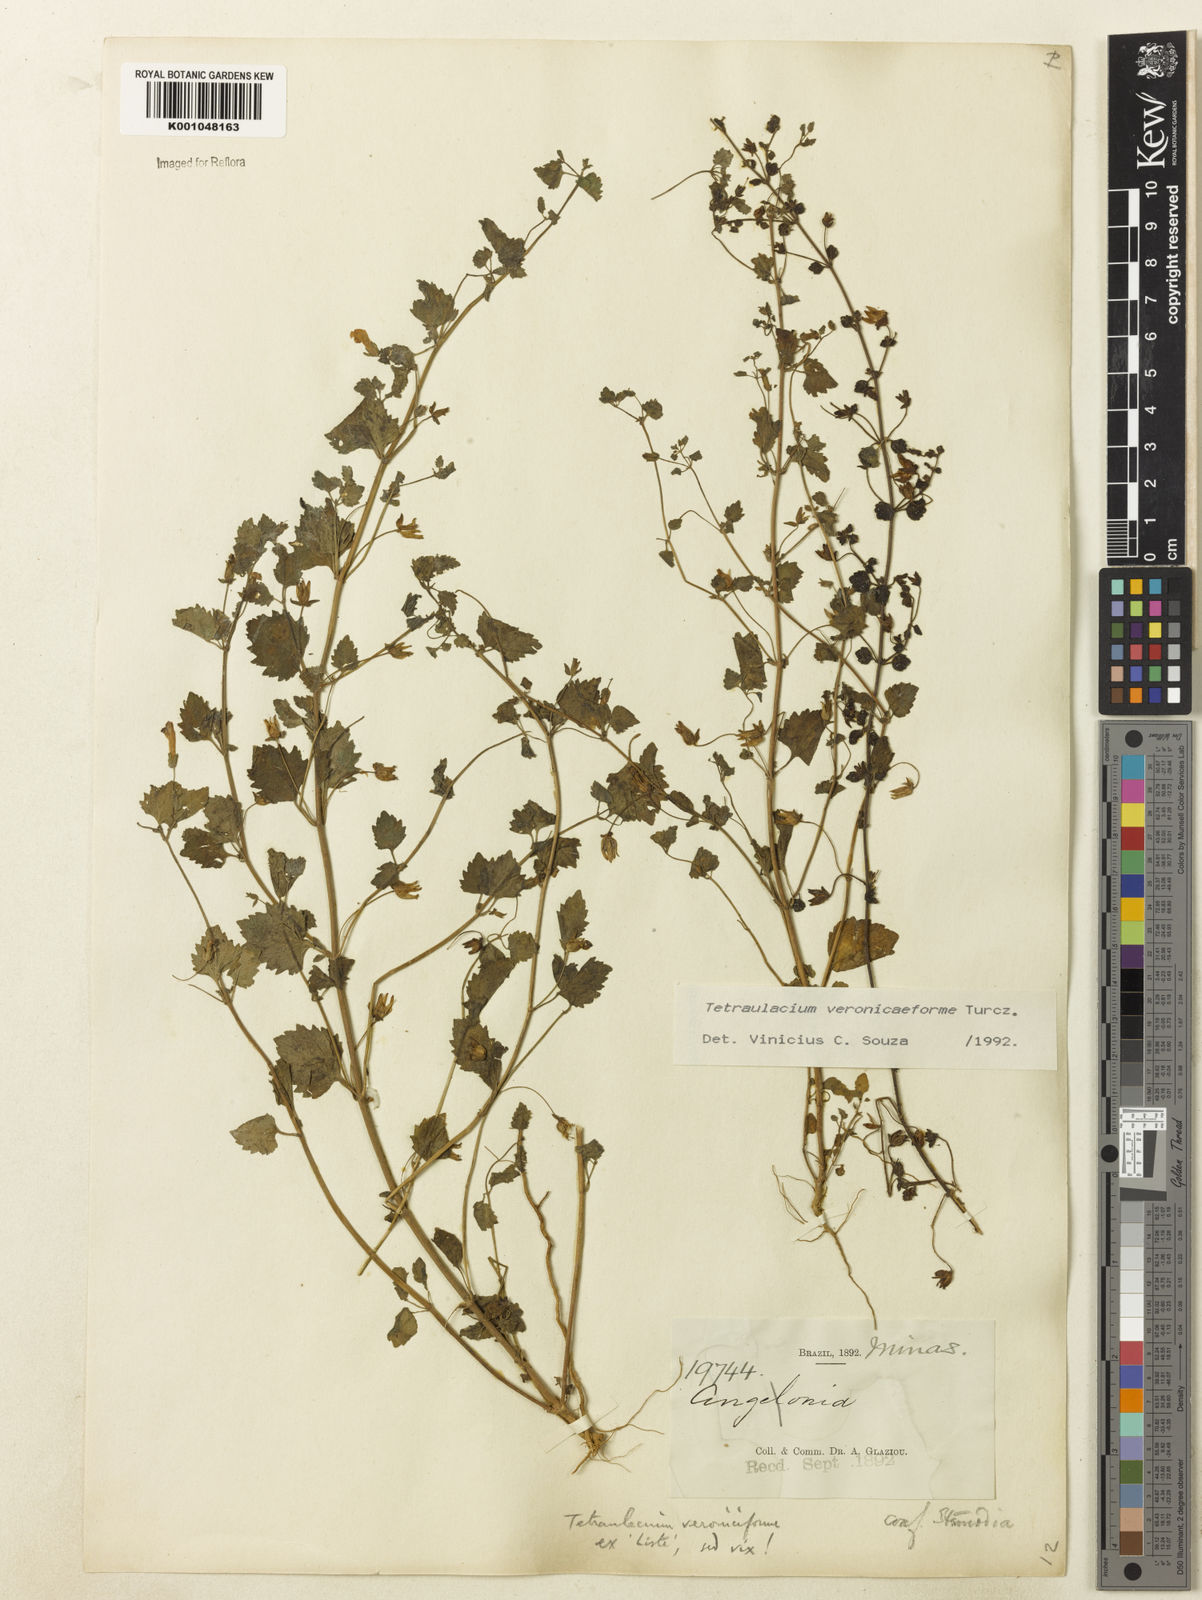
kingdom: Plantae
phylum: Tracheophyta
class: Magnoliopsida
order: Lamiales
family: Plantaginaceae
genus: Tetraulacium
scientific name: Tetraulacium veroniciforme
